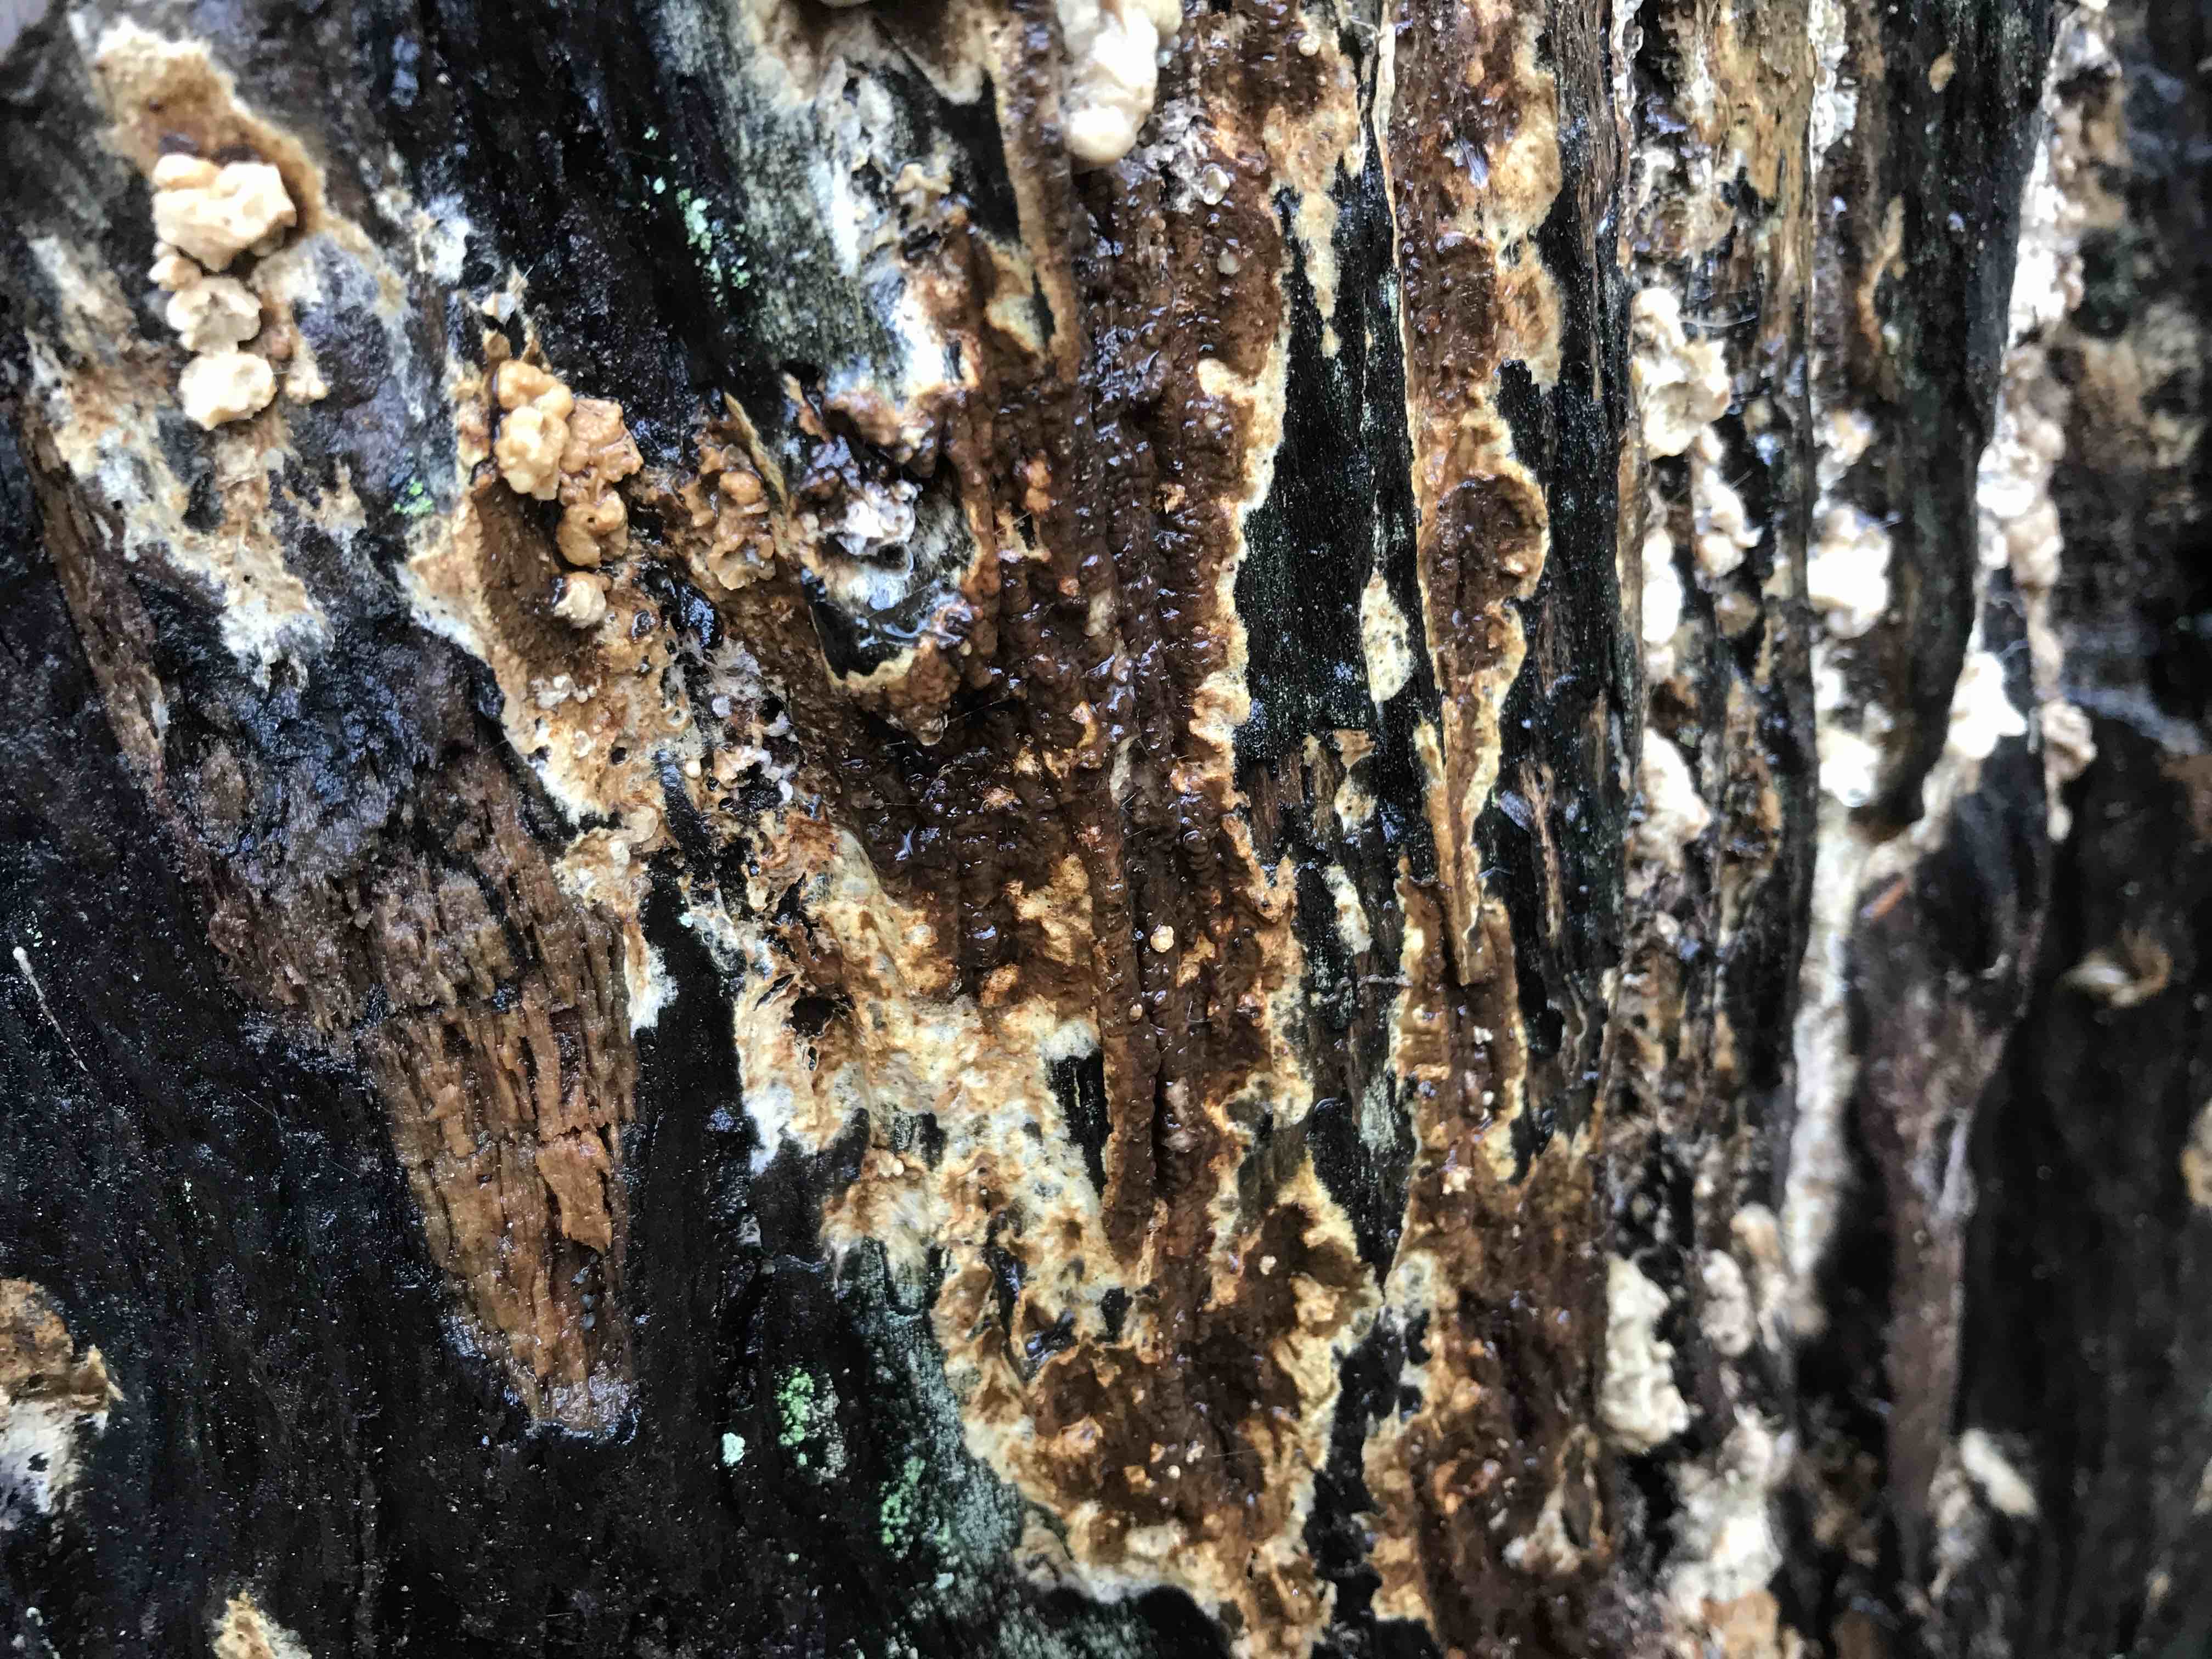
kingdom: Fungi
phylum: Basidiomycota
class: Agaricomycetes
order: Boletales
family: Coniophoraceae
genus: Coniophora
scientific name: Coniophora puteana
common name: gul tømmersvamp
